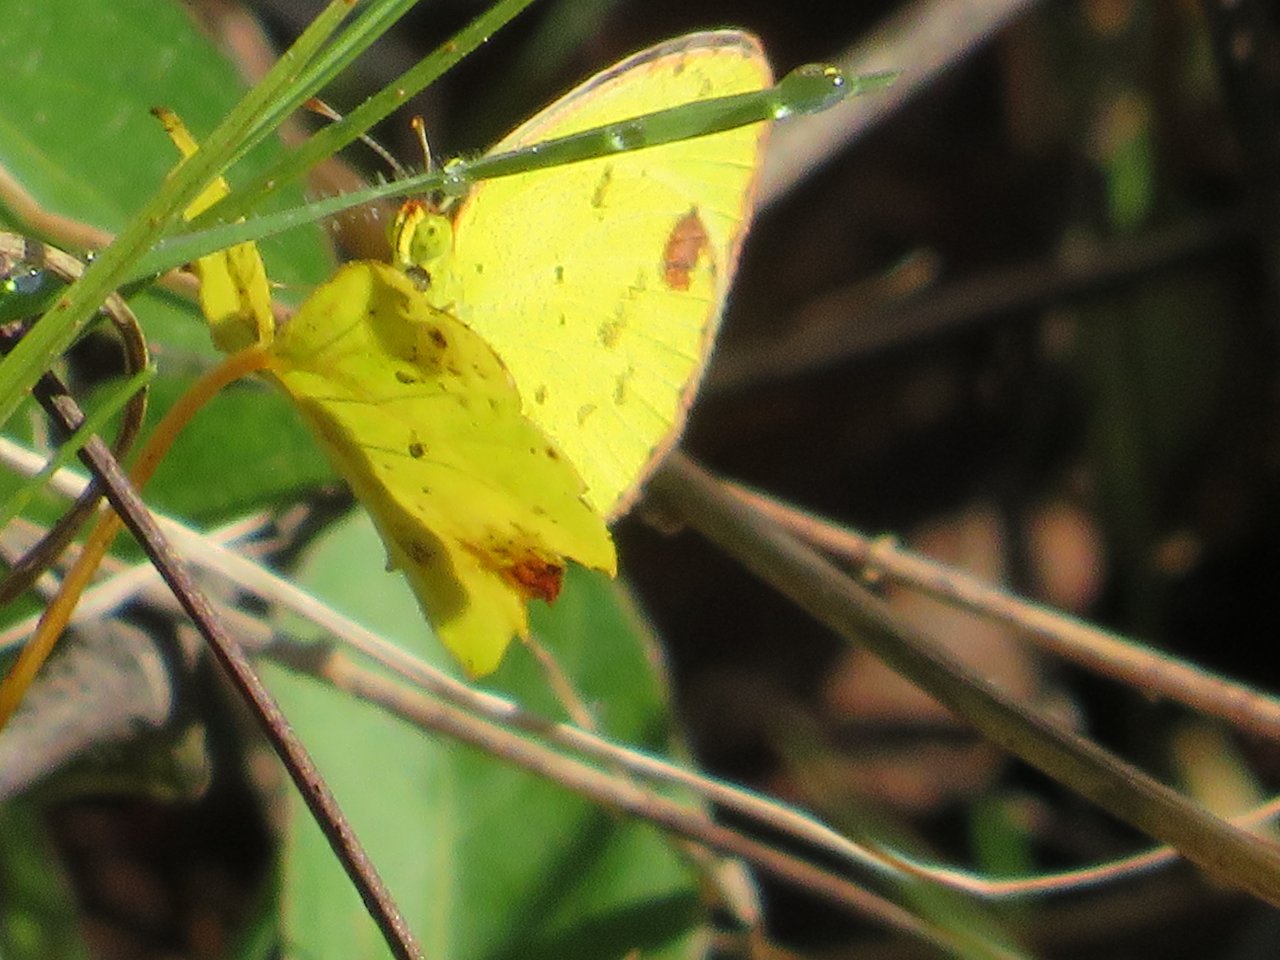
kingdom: Animalia
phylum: Arthropoda
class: Insecta
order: Lepidoptera
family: Pieridae
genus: Pyrisitia
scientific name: Pyrisitia lisa
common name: Little Yellow
